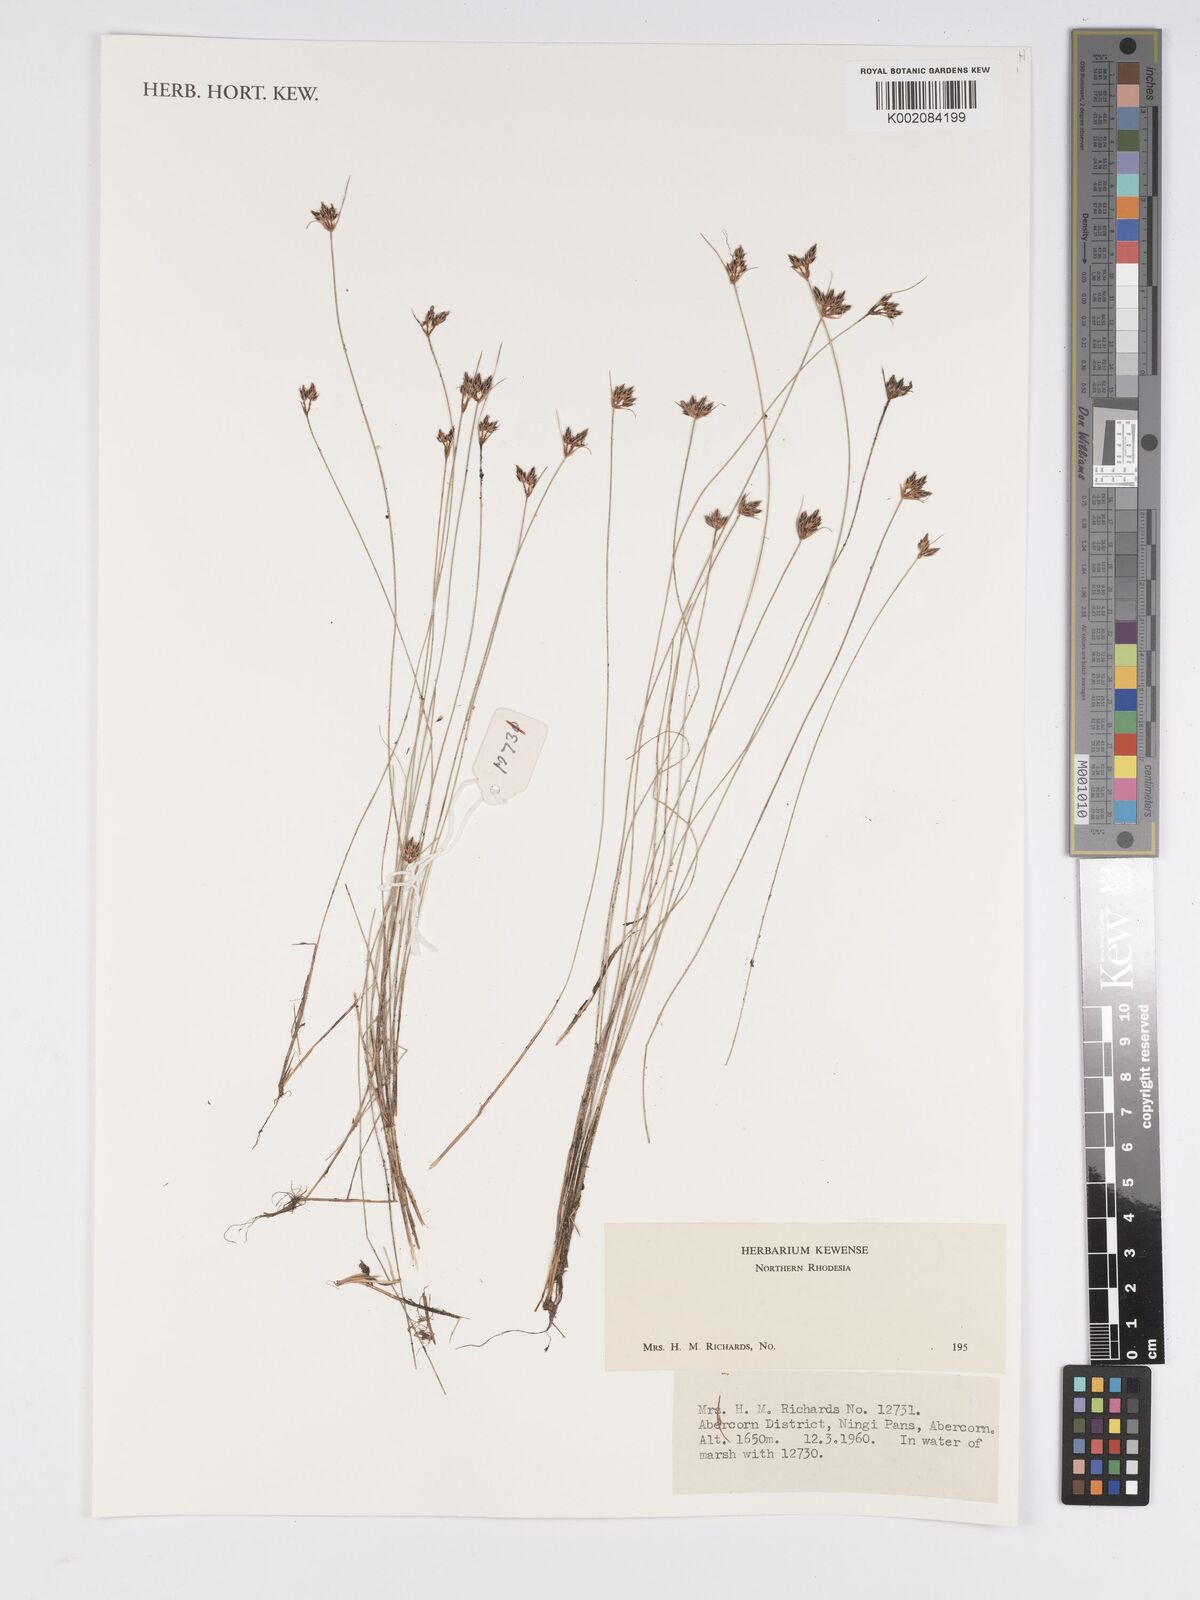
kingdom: Plantae
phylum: Tracheophyta
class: Liliopsida
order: Poales
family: Cyperaceae
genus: Bulbostylis
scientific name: Bulbostylis
